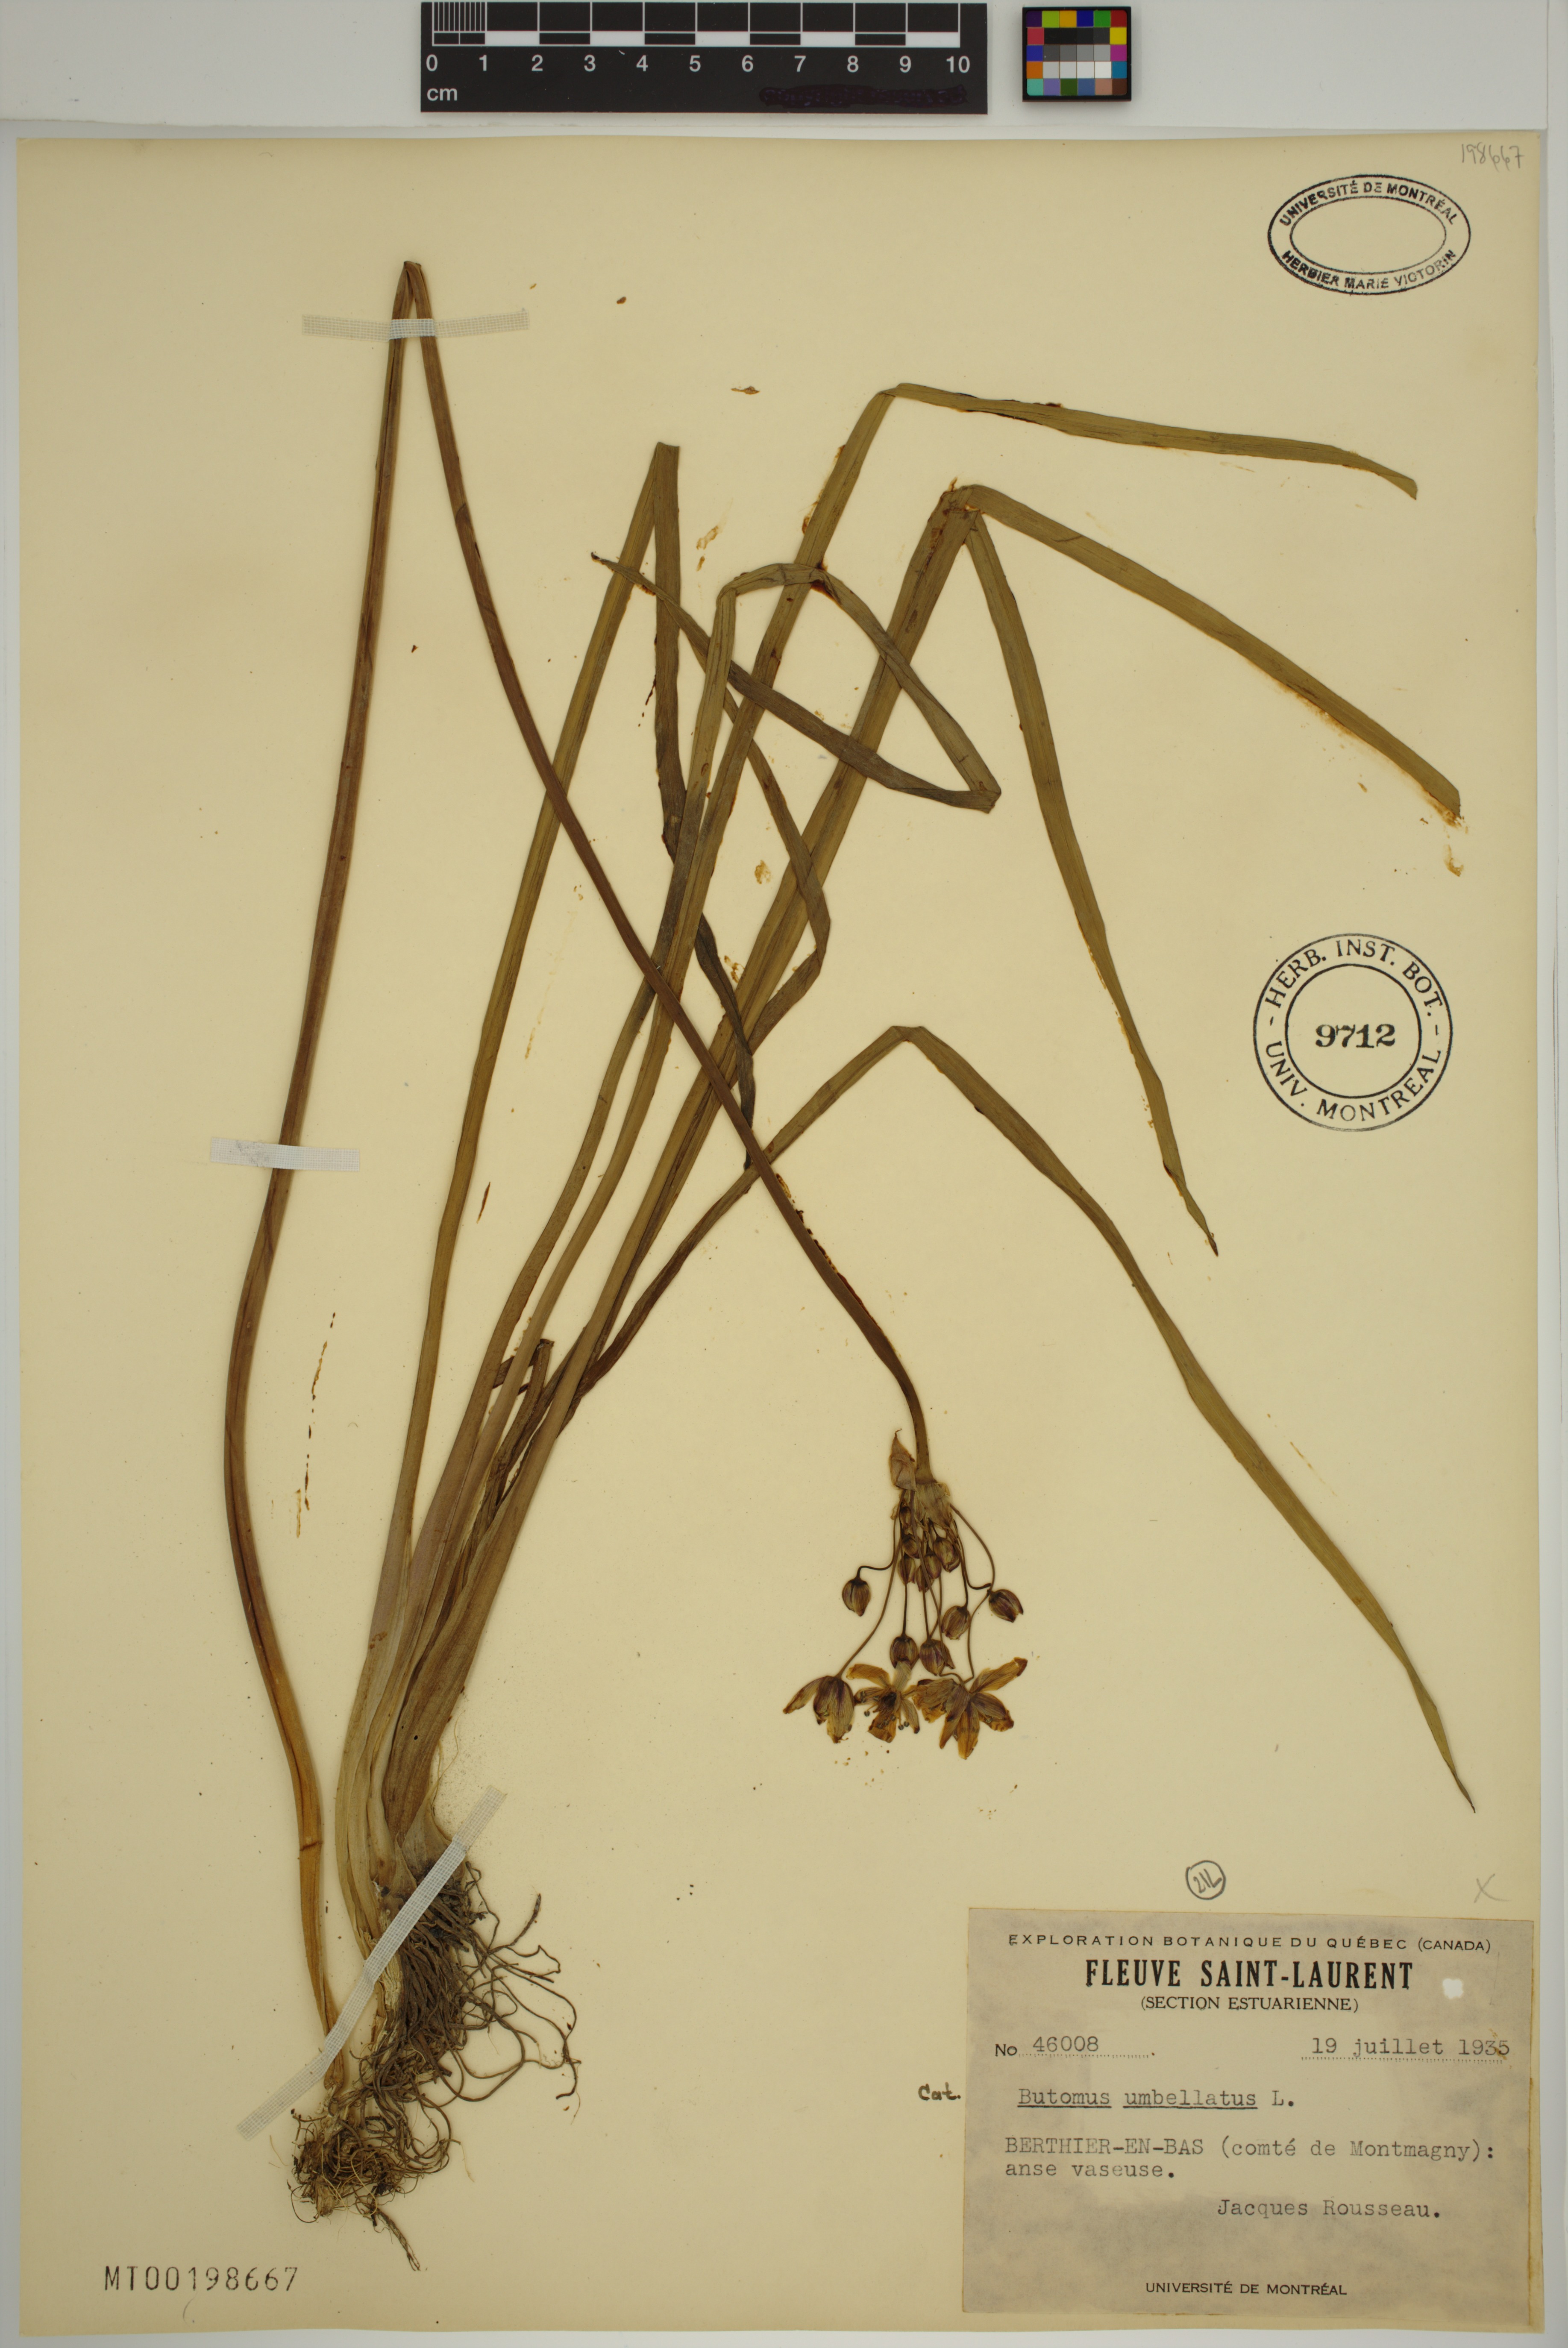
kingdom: Plantae
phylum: Tracheophyta
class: Liliopsida
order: Alismatales
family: Butomaceae
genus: Butomus
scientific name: Butomus umbellatus
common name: Flowering-rush
